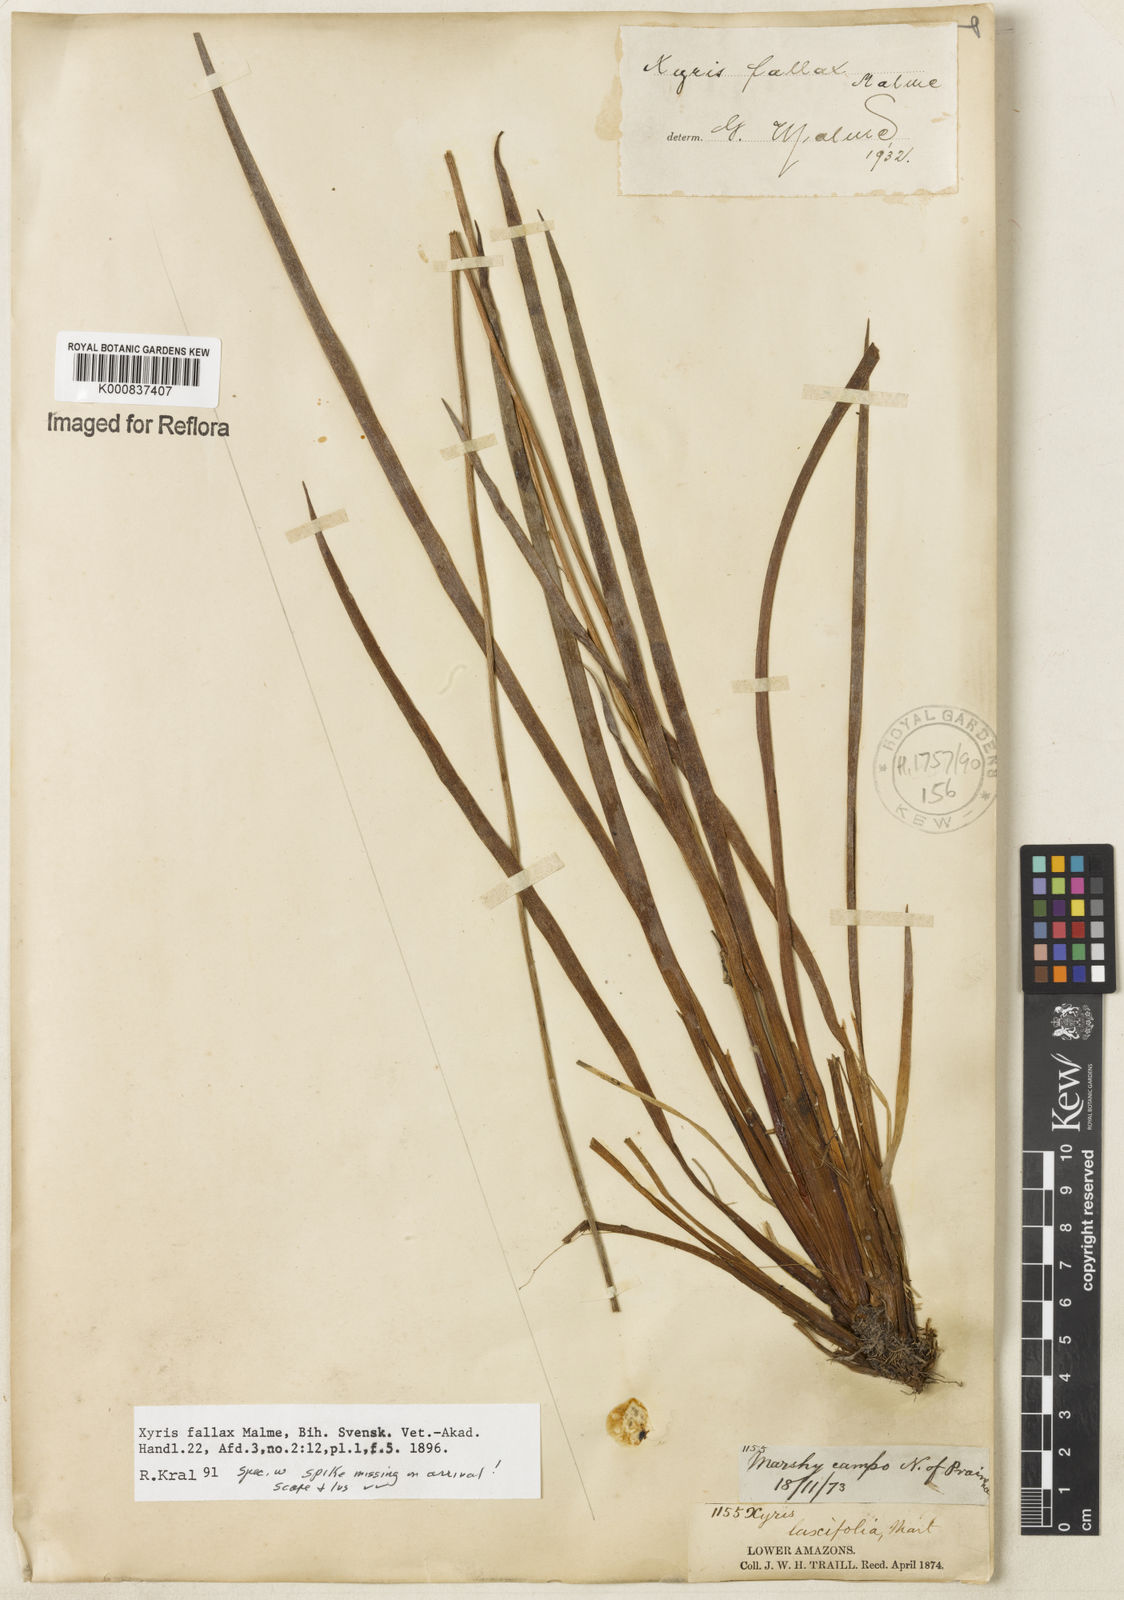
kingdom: Plantae
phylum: Tracheophyta
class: Liliopsida
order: Poales
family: Xyridaceae
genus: Xyris
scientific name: Xyris fallax
